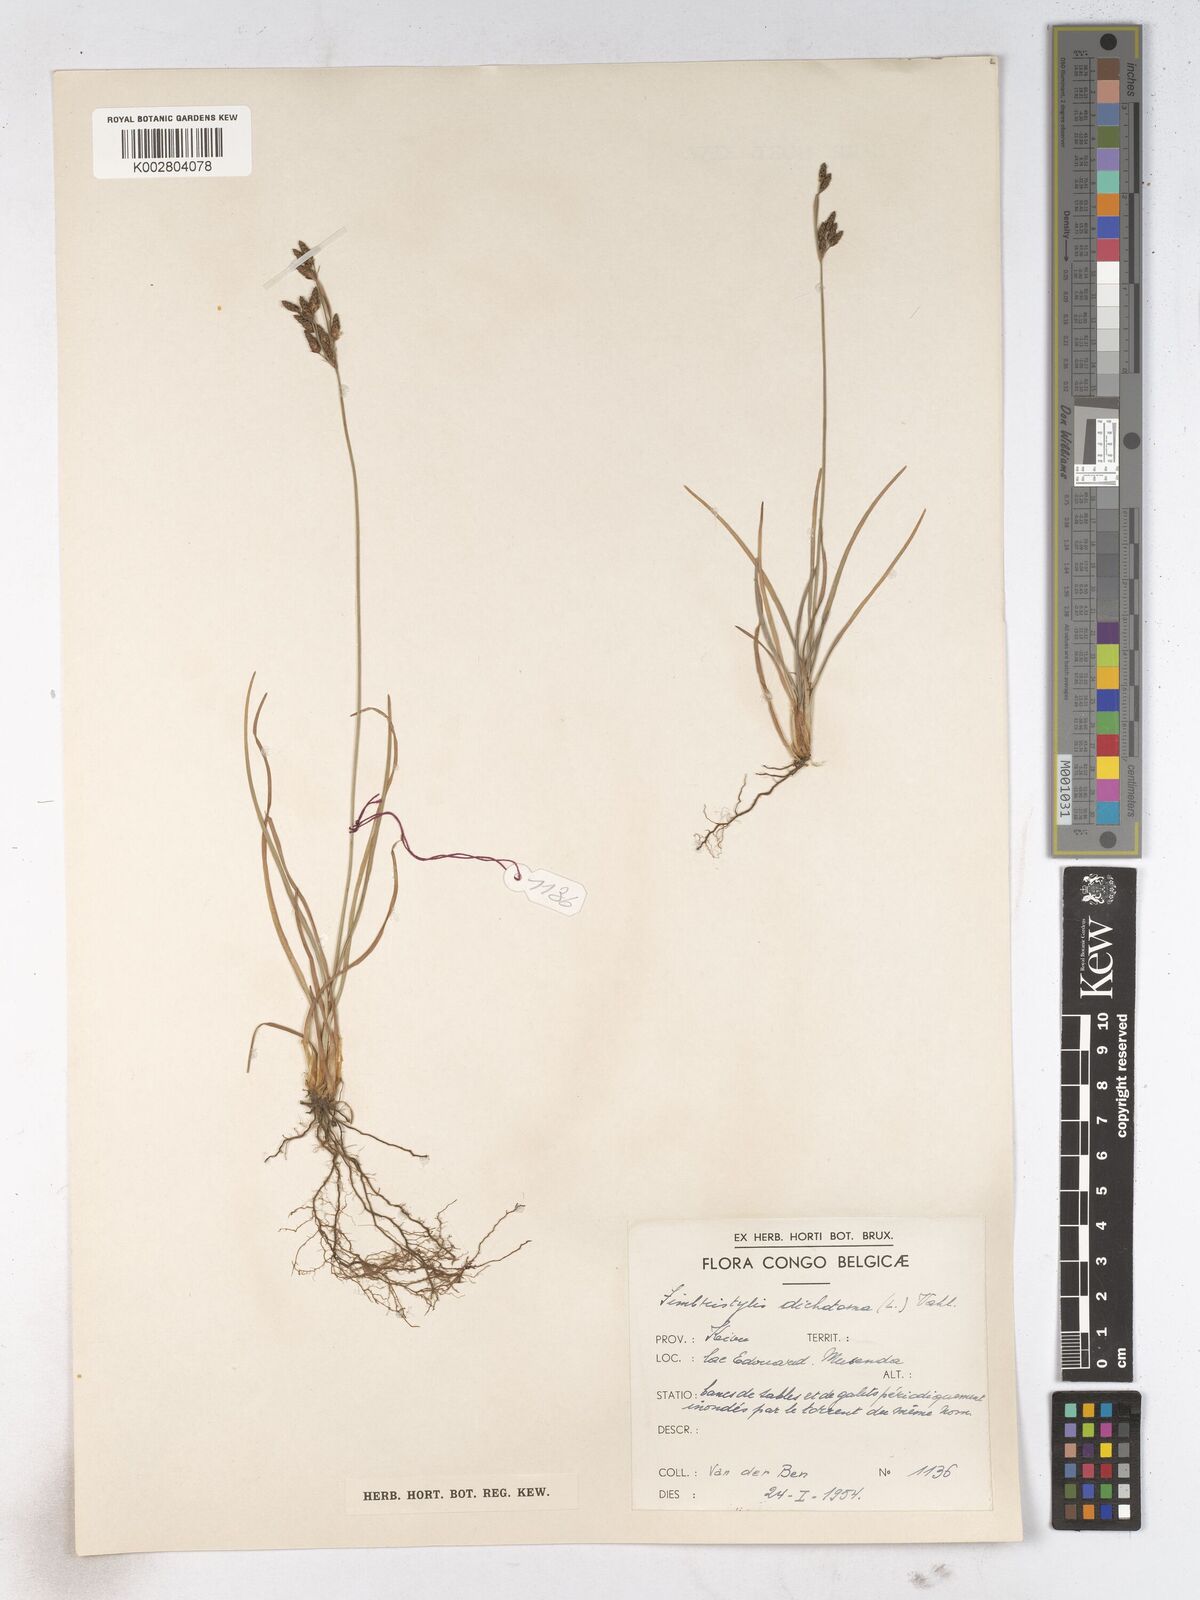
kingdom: Plantae
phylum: Tracheophyta
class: Liliopsida
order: Poales
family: Cyperaceae
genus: Fimbristylis
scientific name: Fimbristylis dichotoma
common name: Forked fimbry
